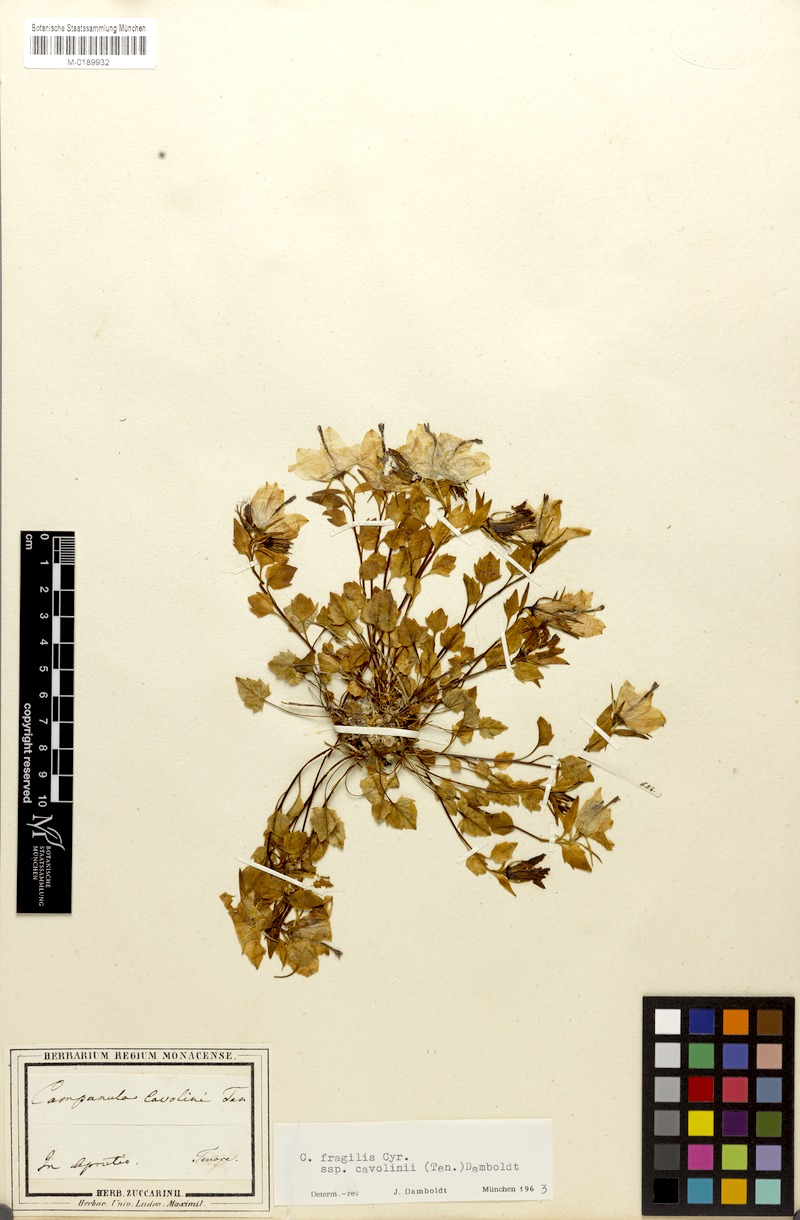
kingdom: Plantae
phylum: Tracheophyta
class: Magnoliopsida
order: Asterales
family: Campanulaceae
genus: Campanula
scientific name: Campanula fragilis
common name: Italian bellflower
